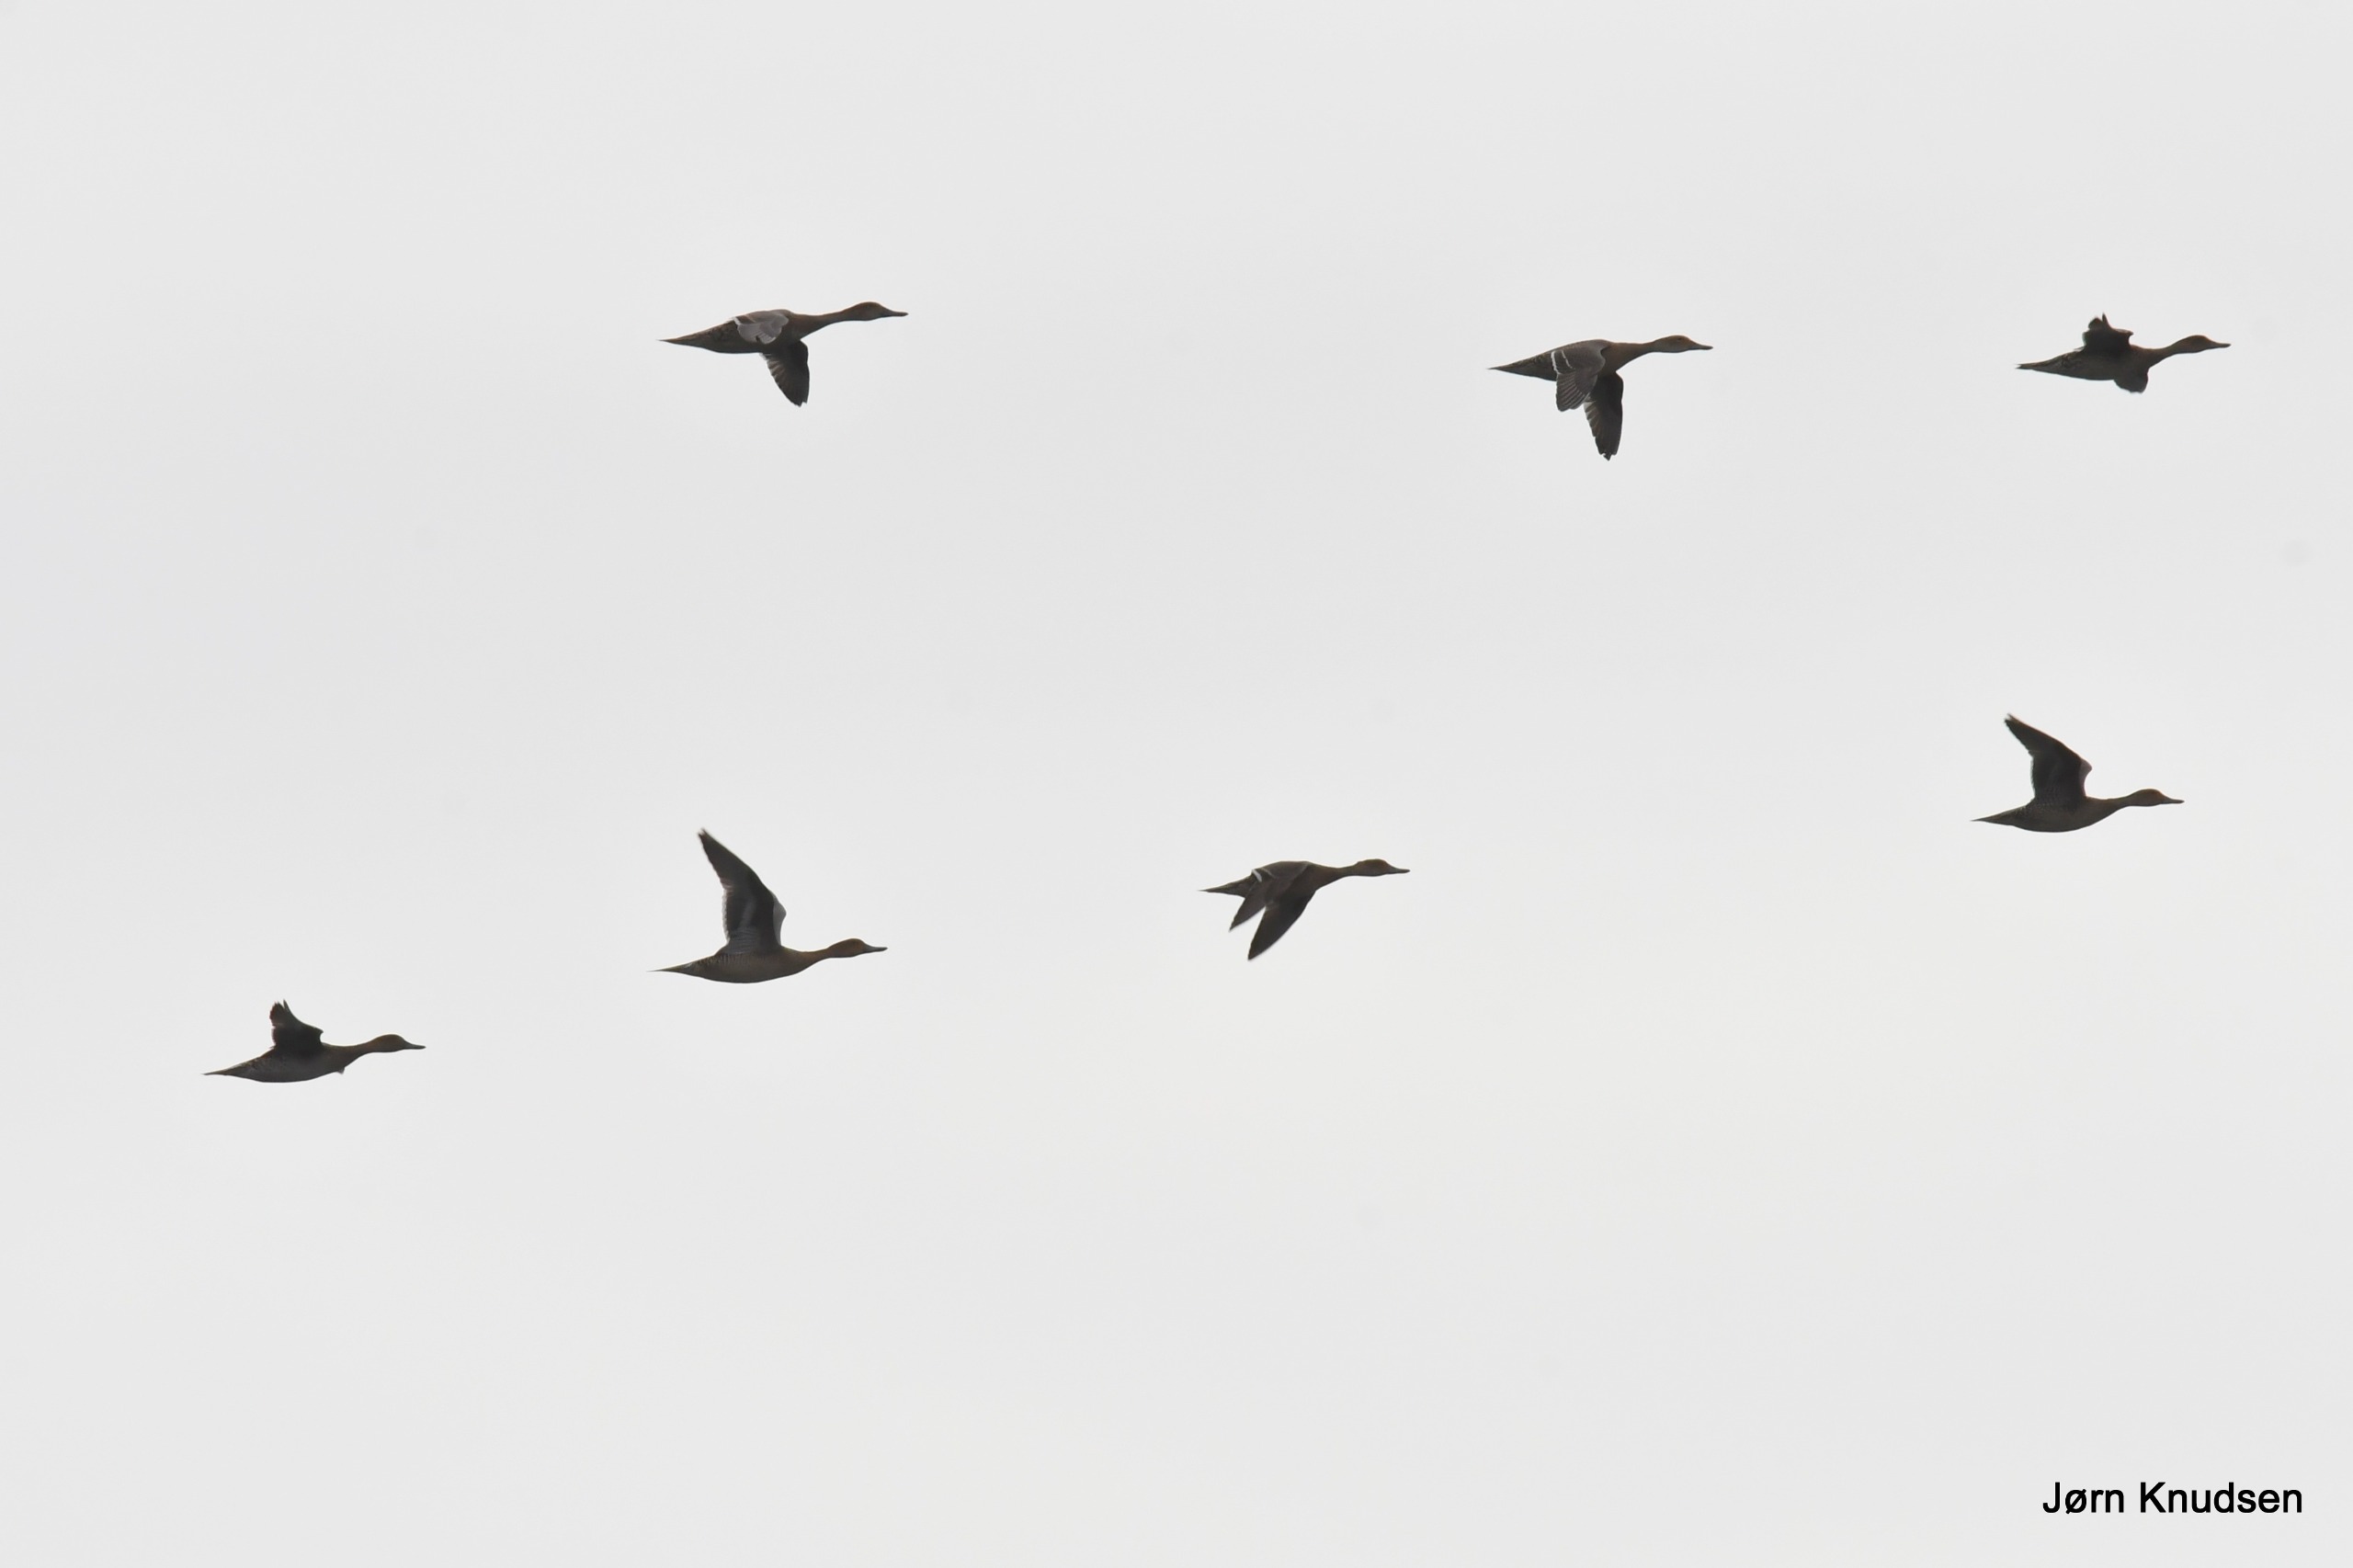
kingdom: Animalia
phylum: Chordata
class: Aves
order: Anseriformes
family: Anatidae
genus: Anas
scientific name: Anas acuta
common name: Spidsand
